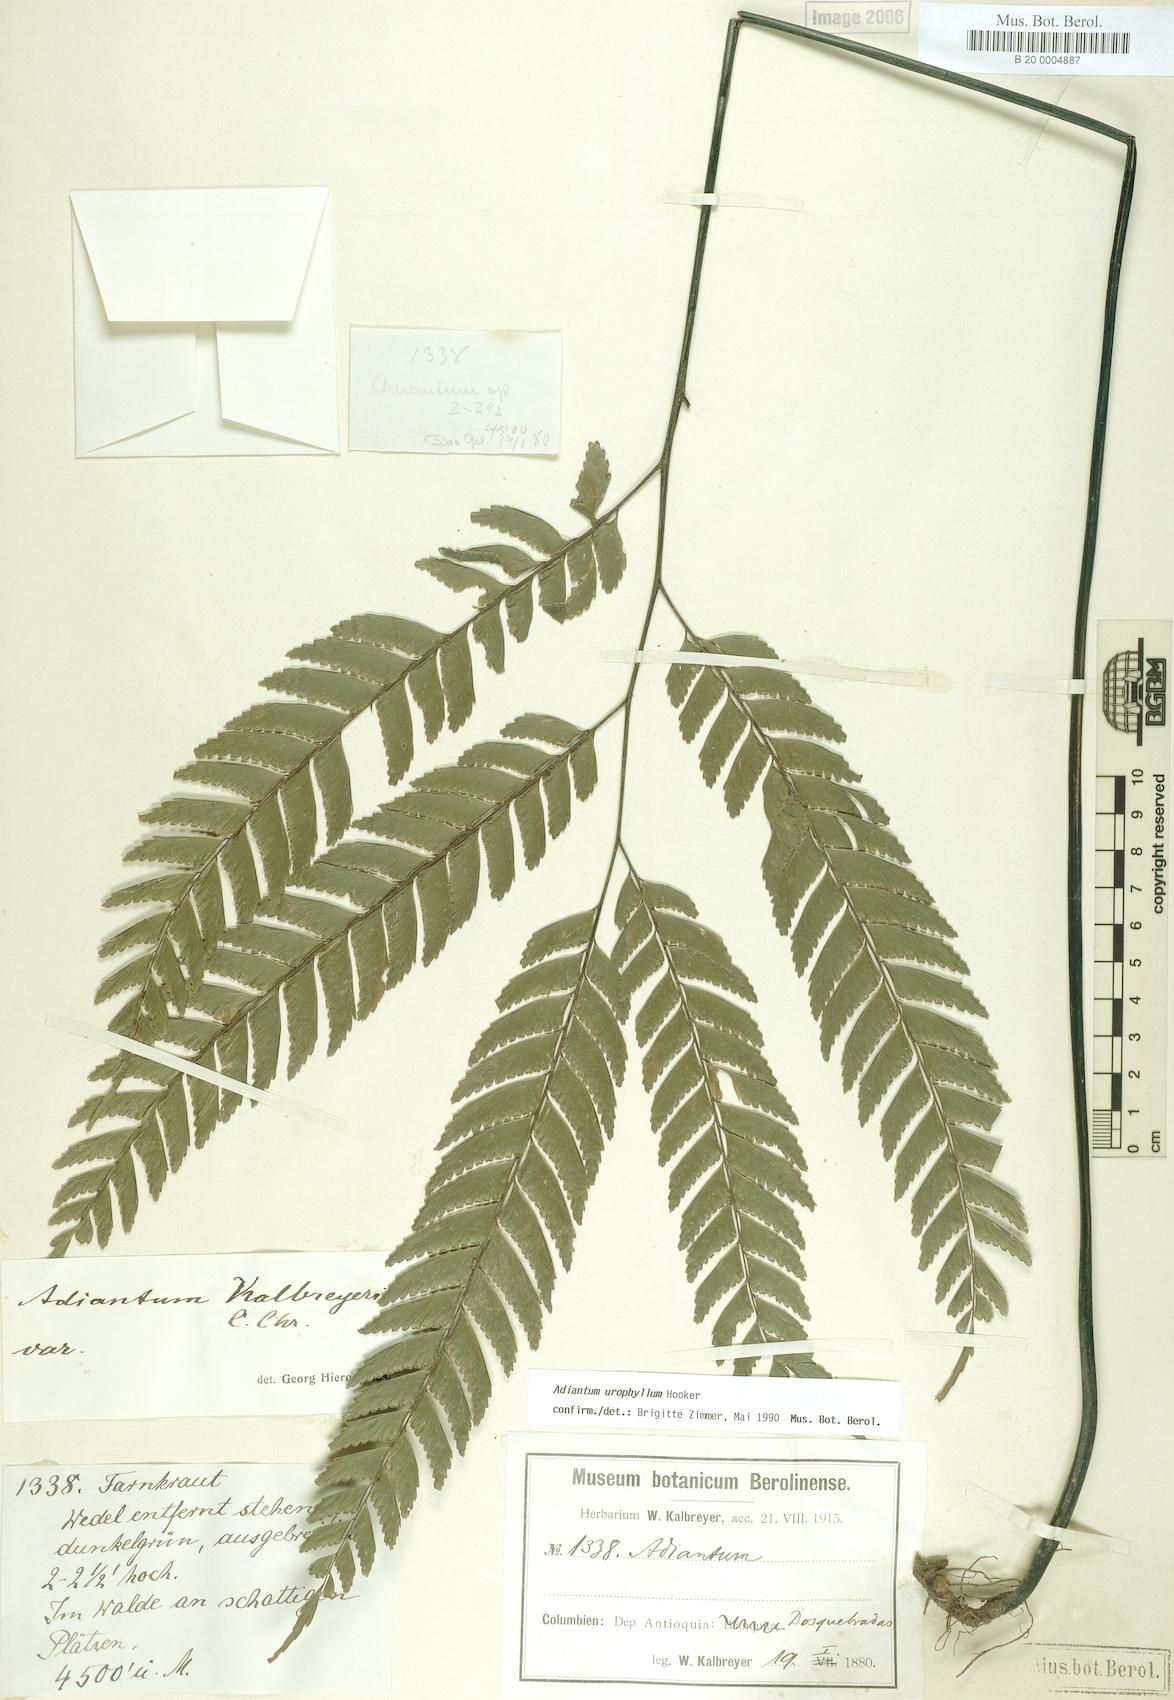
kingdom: Plantae
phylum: Tracheophyta
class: Polypodiopsida
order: Polypodiales
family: Pteridaceae
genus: Adiantum
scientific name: Adiantum urophyllum
